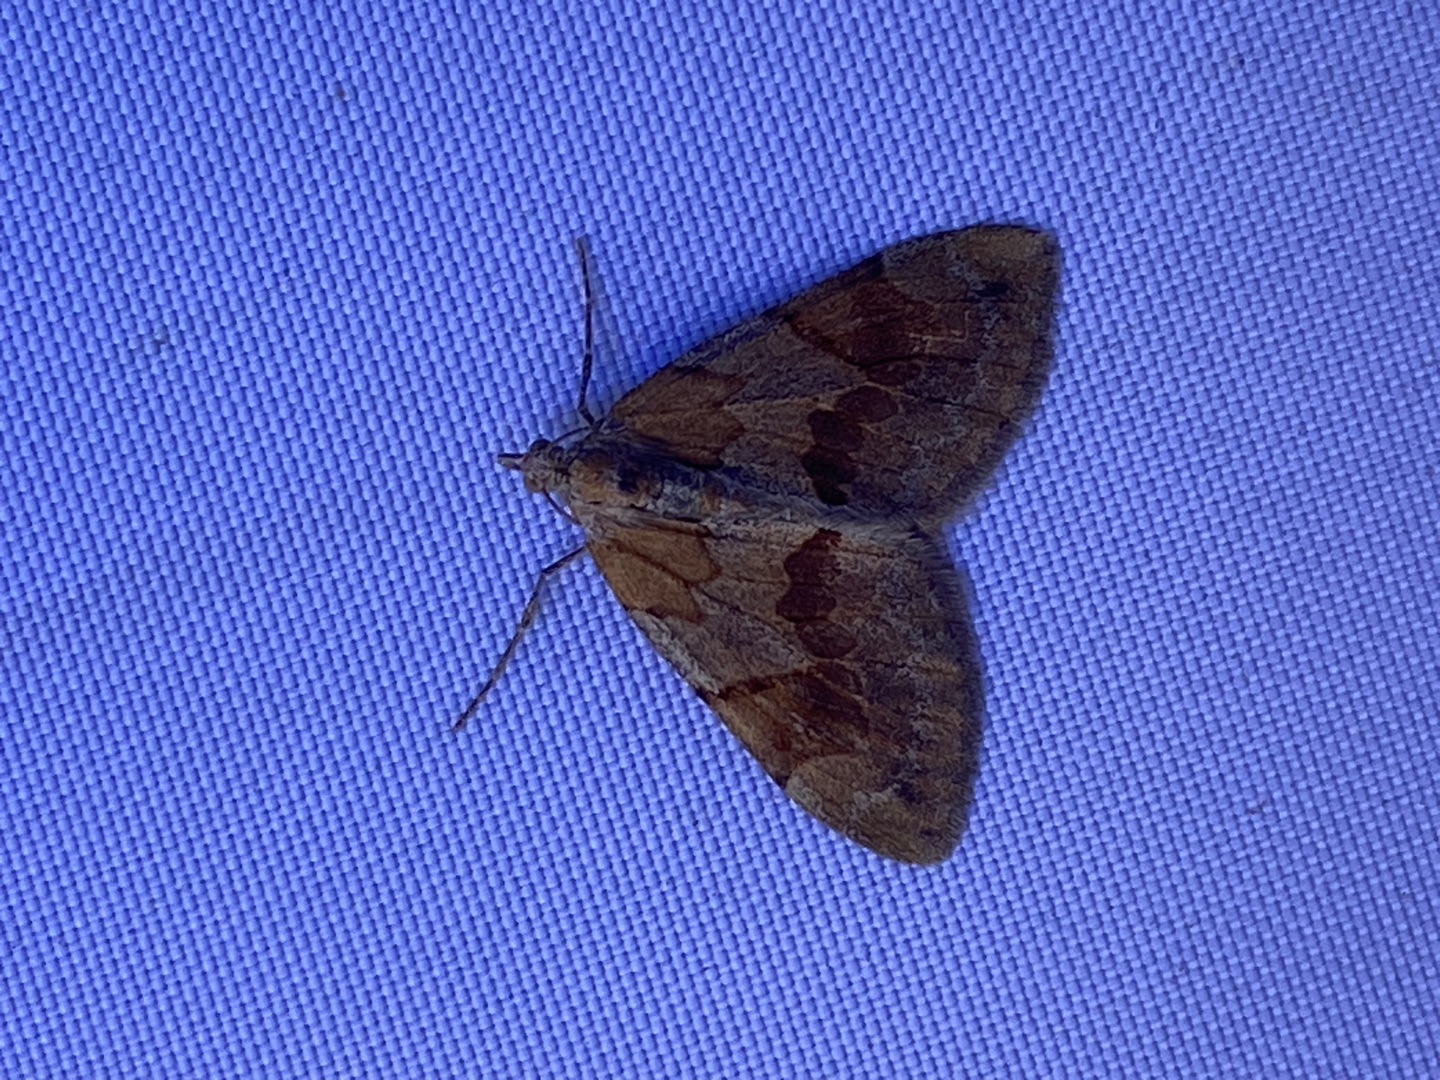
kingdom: Animalia
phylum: Arthropoda
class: Insecta
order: Lepidoptera
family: Geometridae
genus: Pennithera
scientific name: Pennithera firmata
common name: Rød fyrremåler
